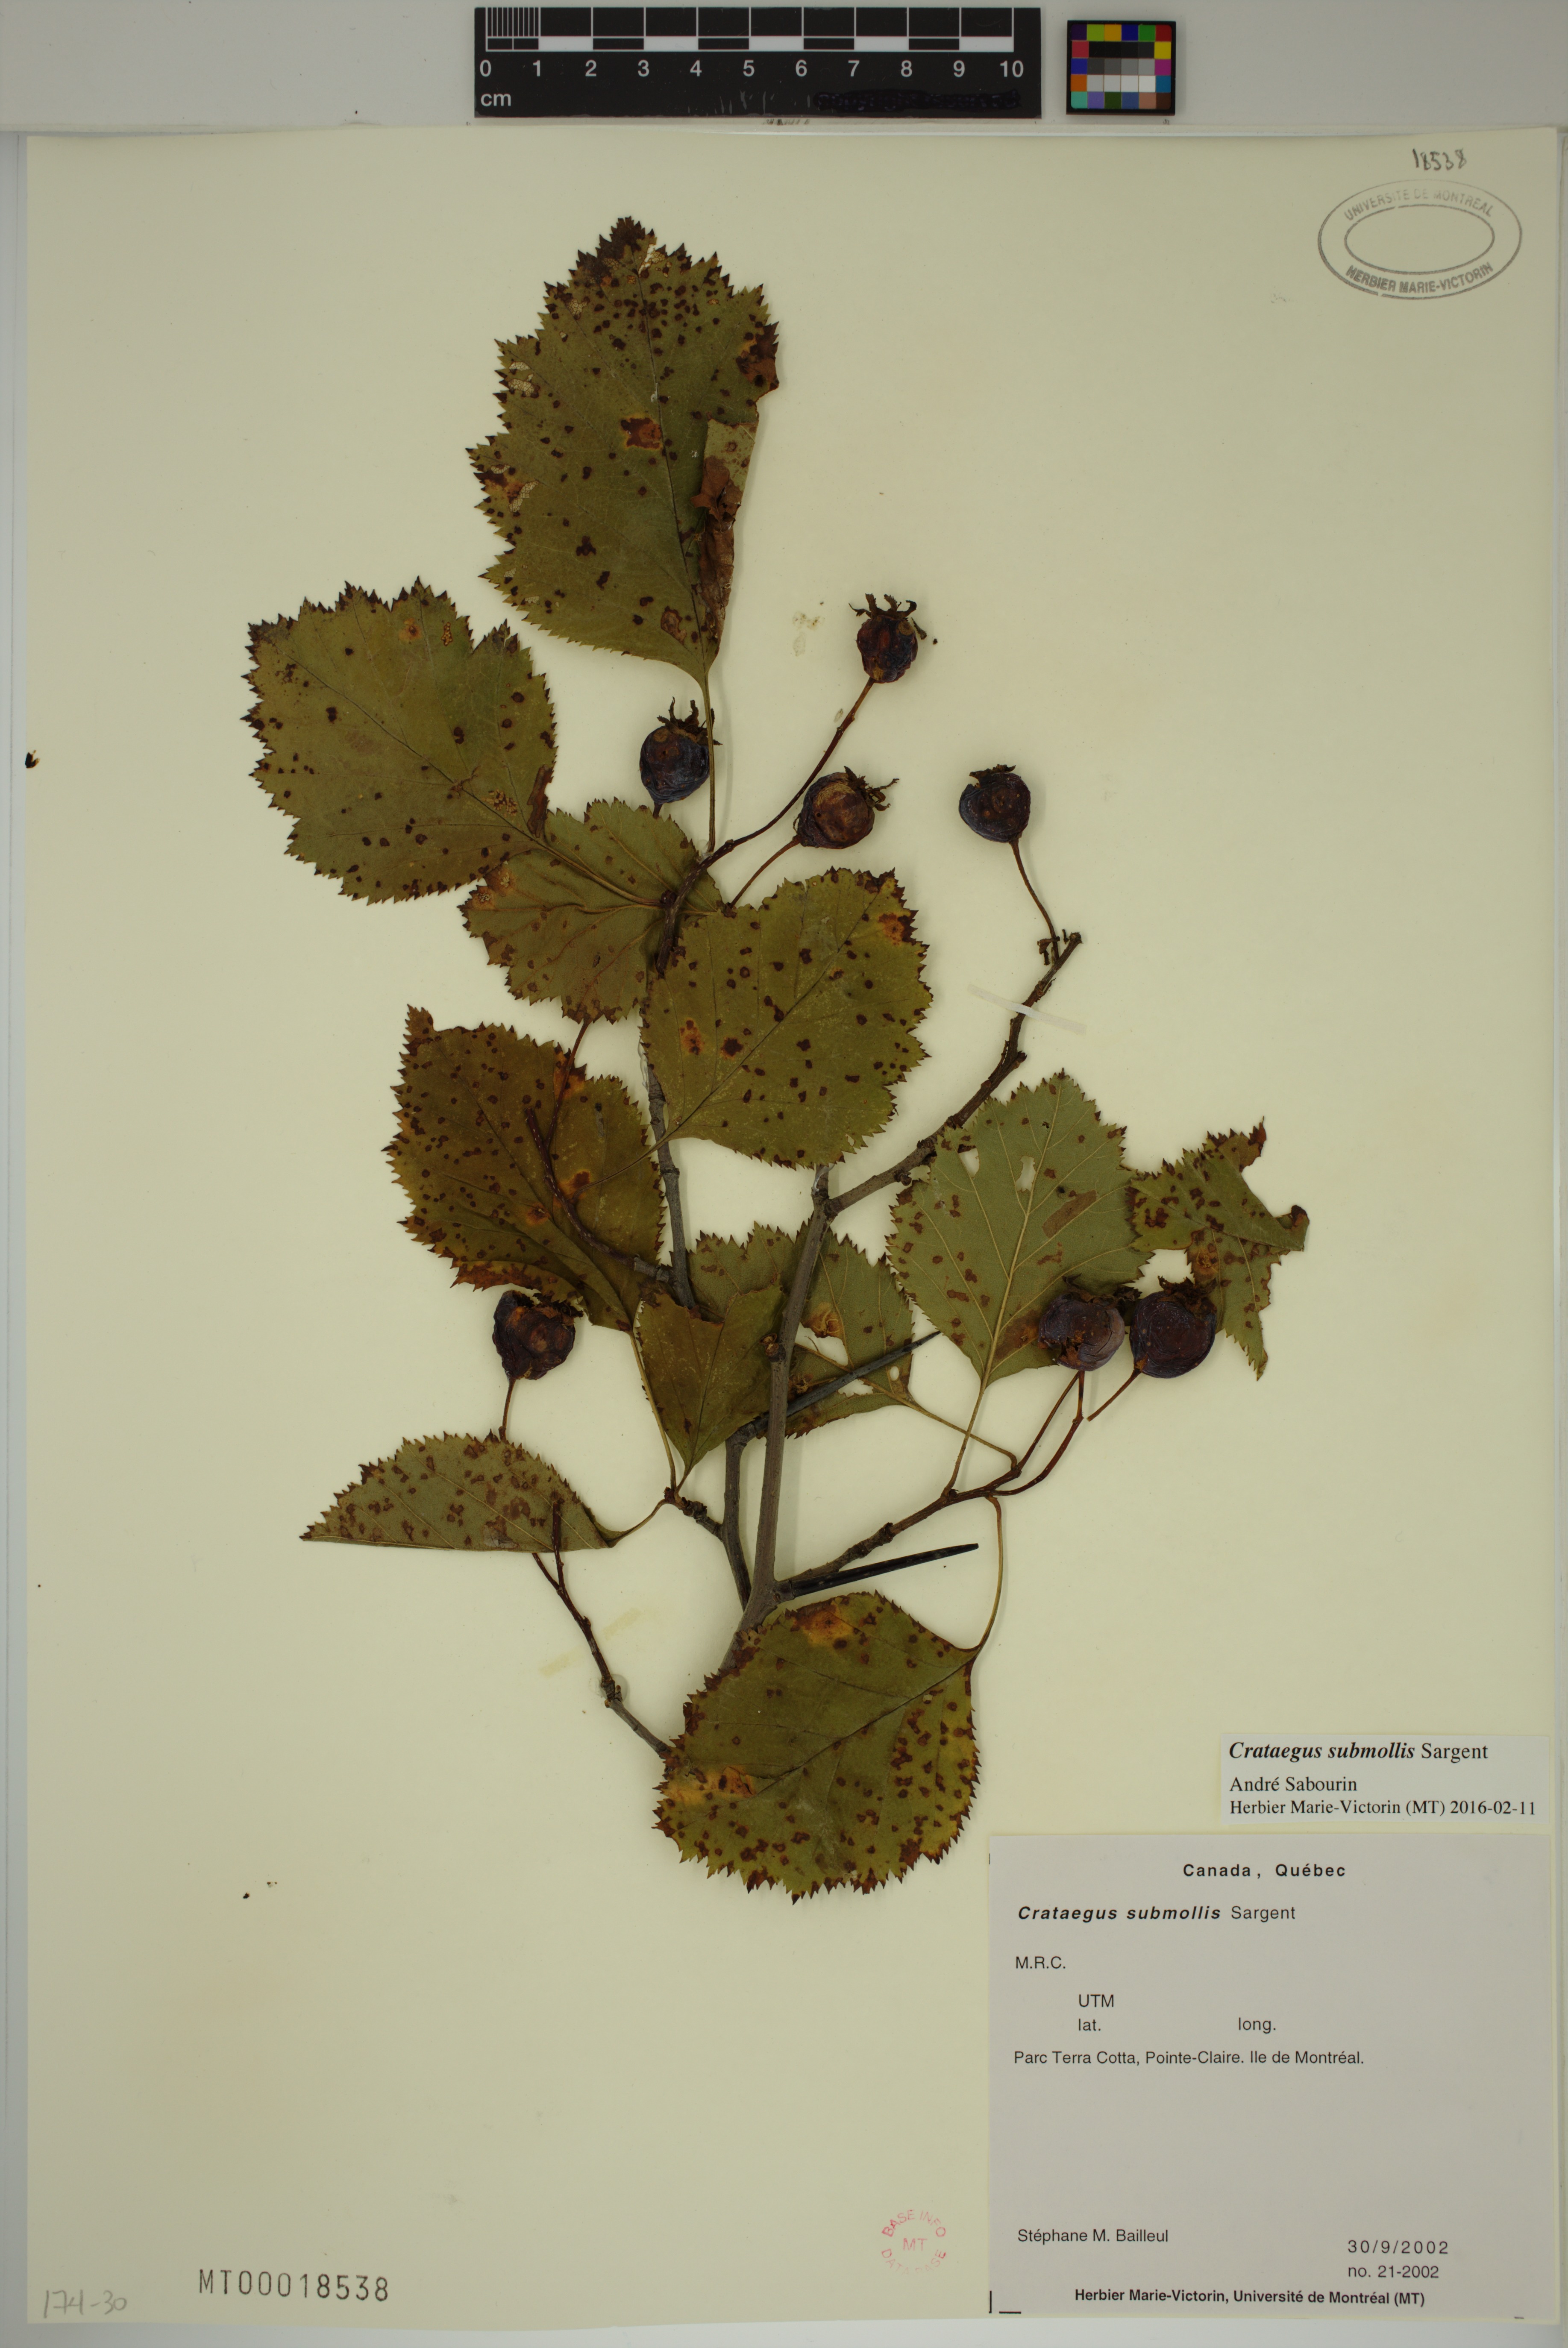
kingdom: Plantae
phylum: Tracheophyta
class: Magnoliopsida
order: Rosales
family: Rosaceae
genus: Crataegus
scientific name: Crataegus submollis
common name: Hairy cockspurthorn
